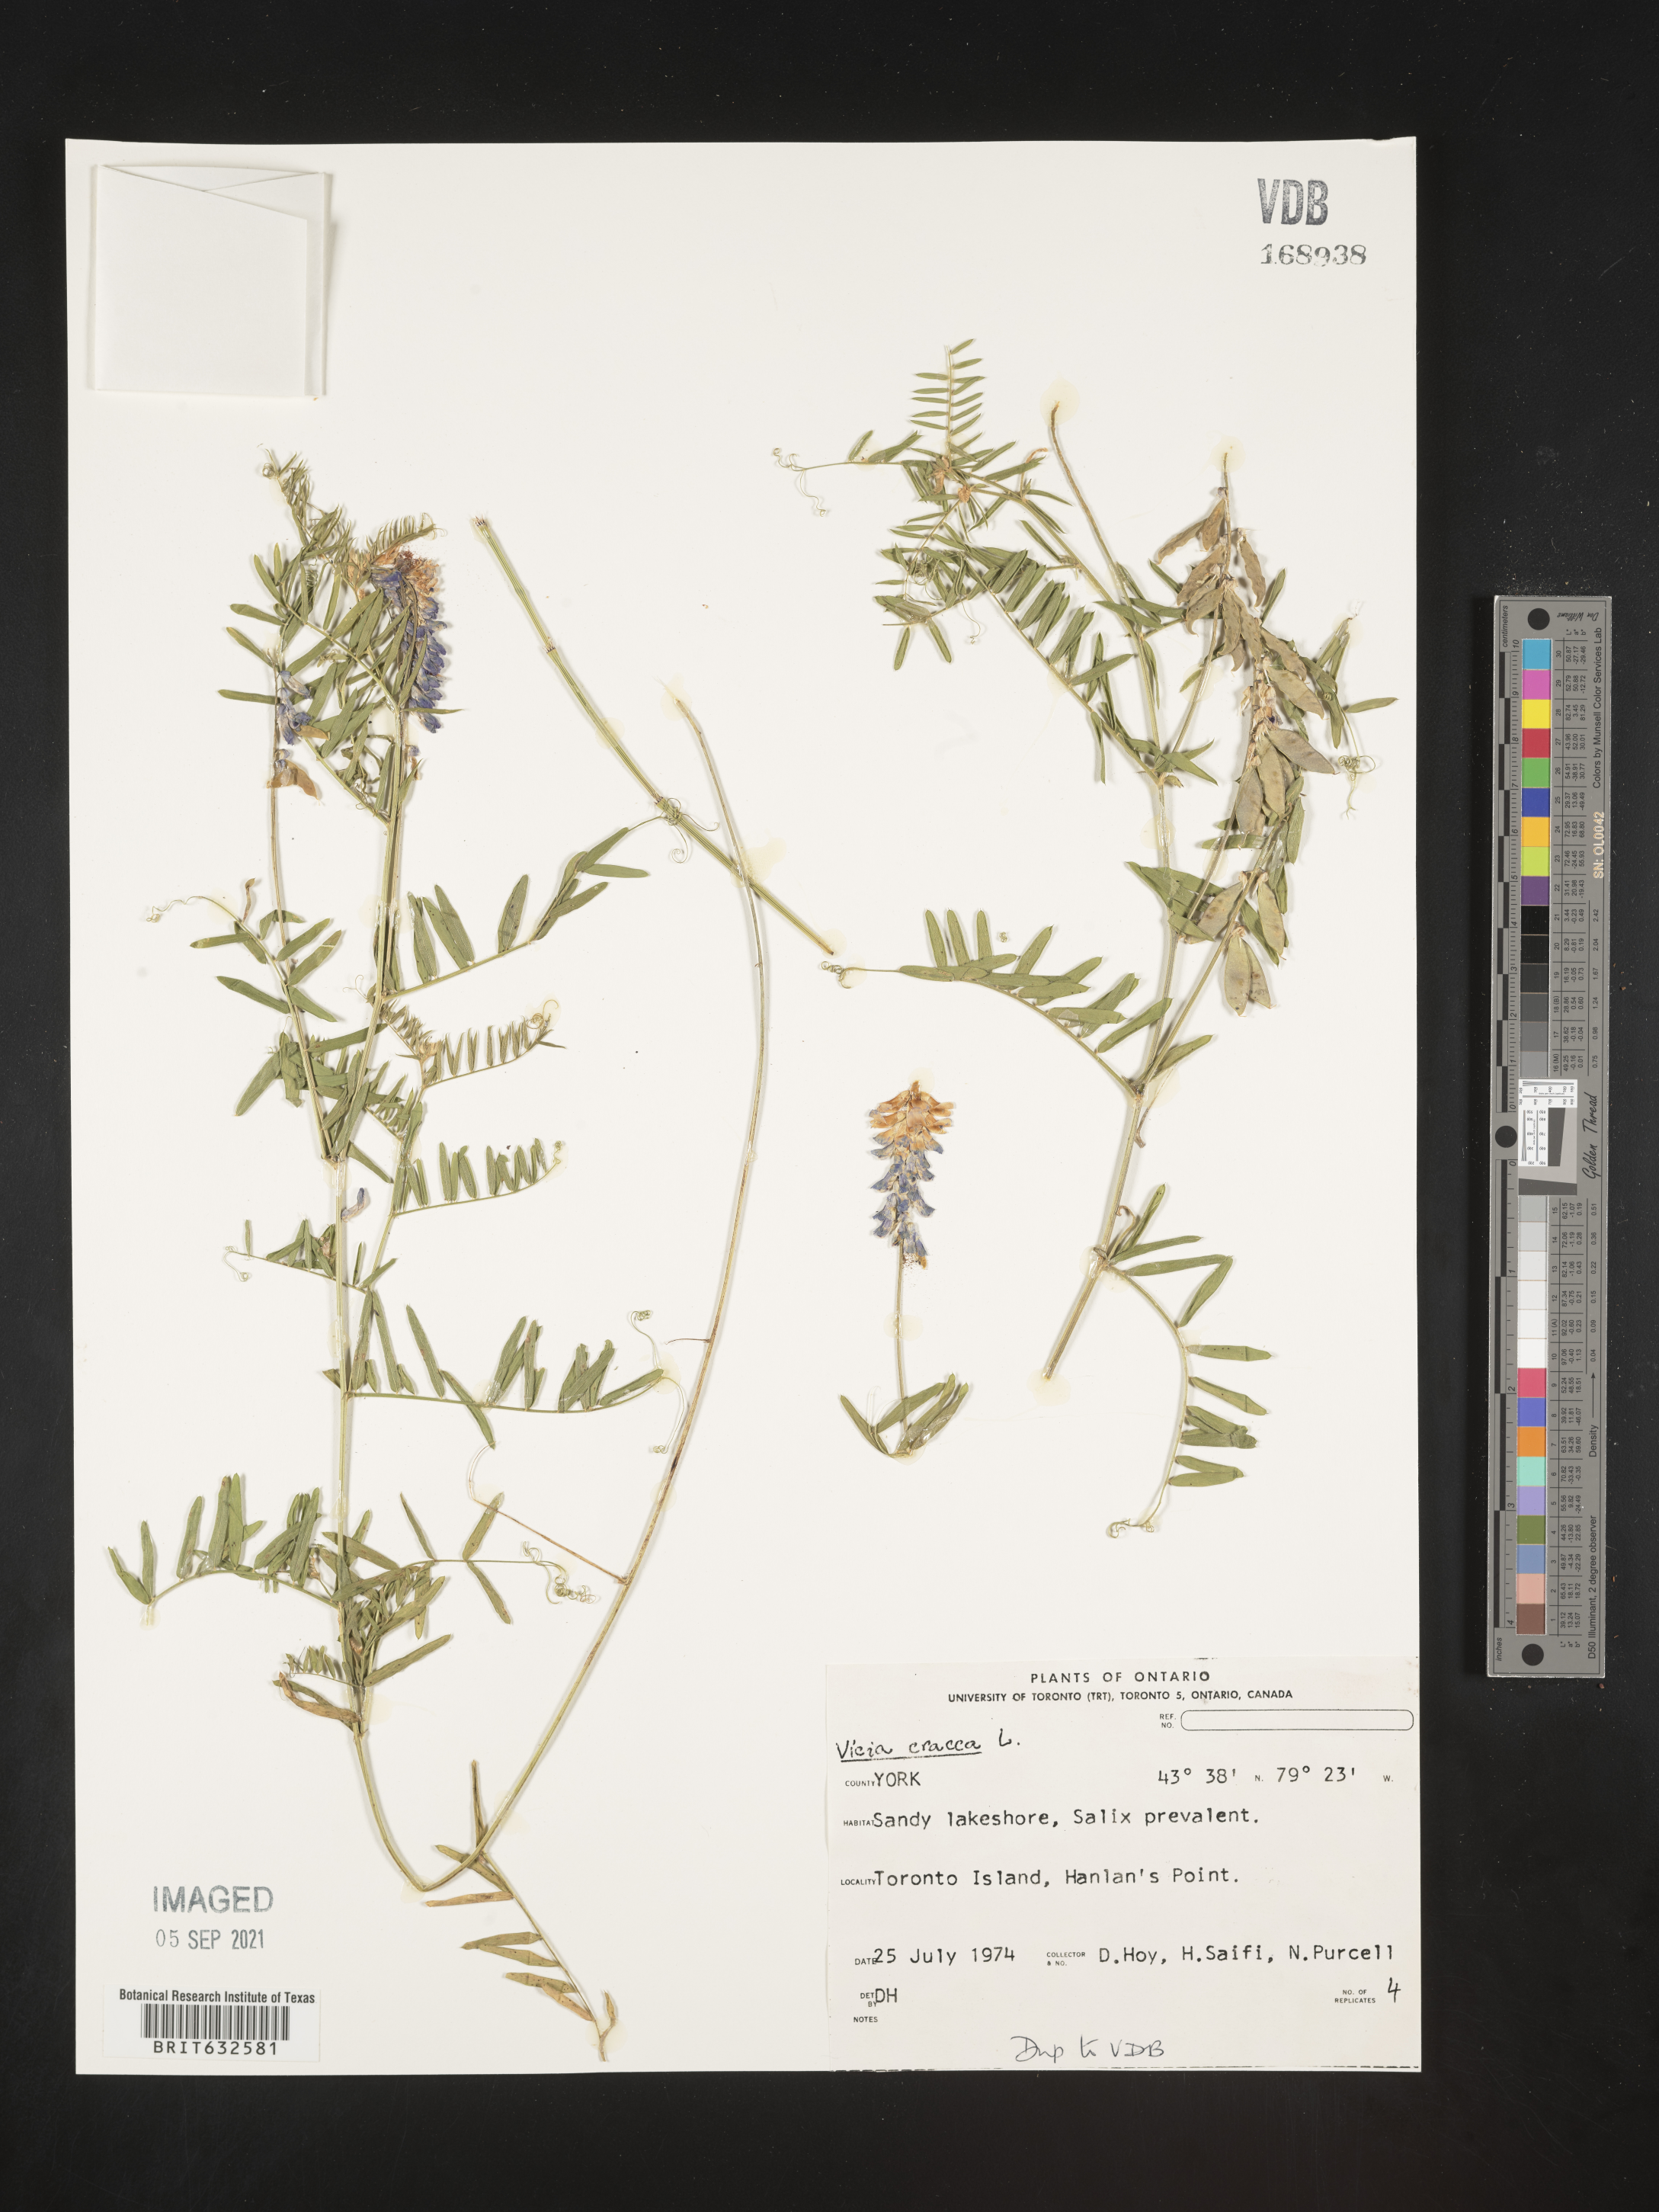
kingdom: Plantae
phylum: Tracheophyta
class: Magnoliopsida
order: Fabales
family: Fabaceae
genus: Vicia
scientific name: Vicia
